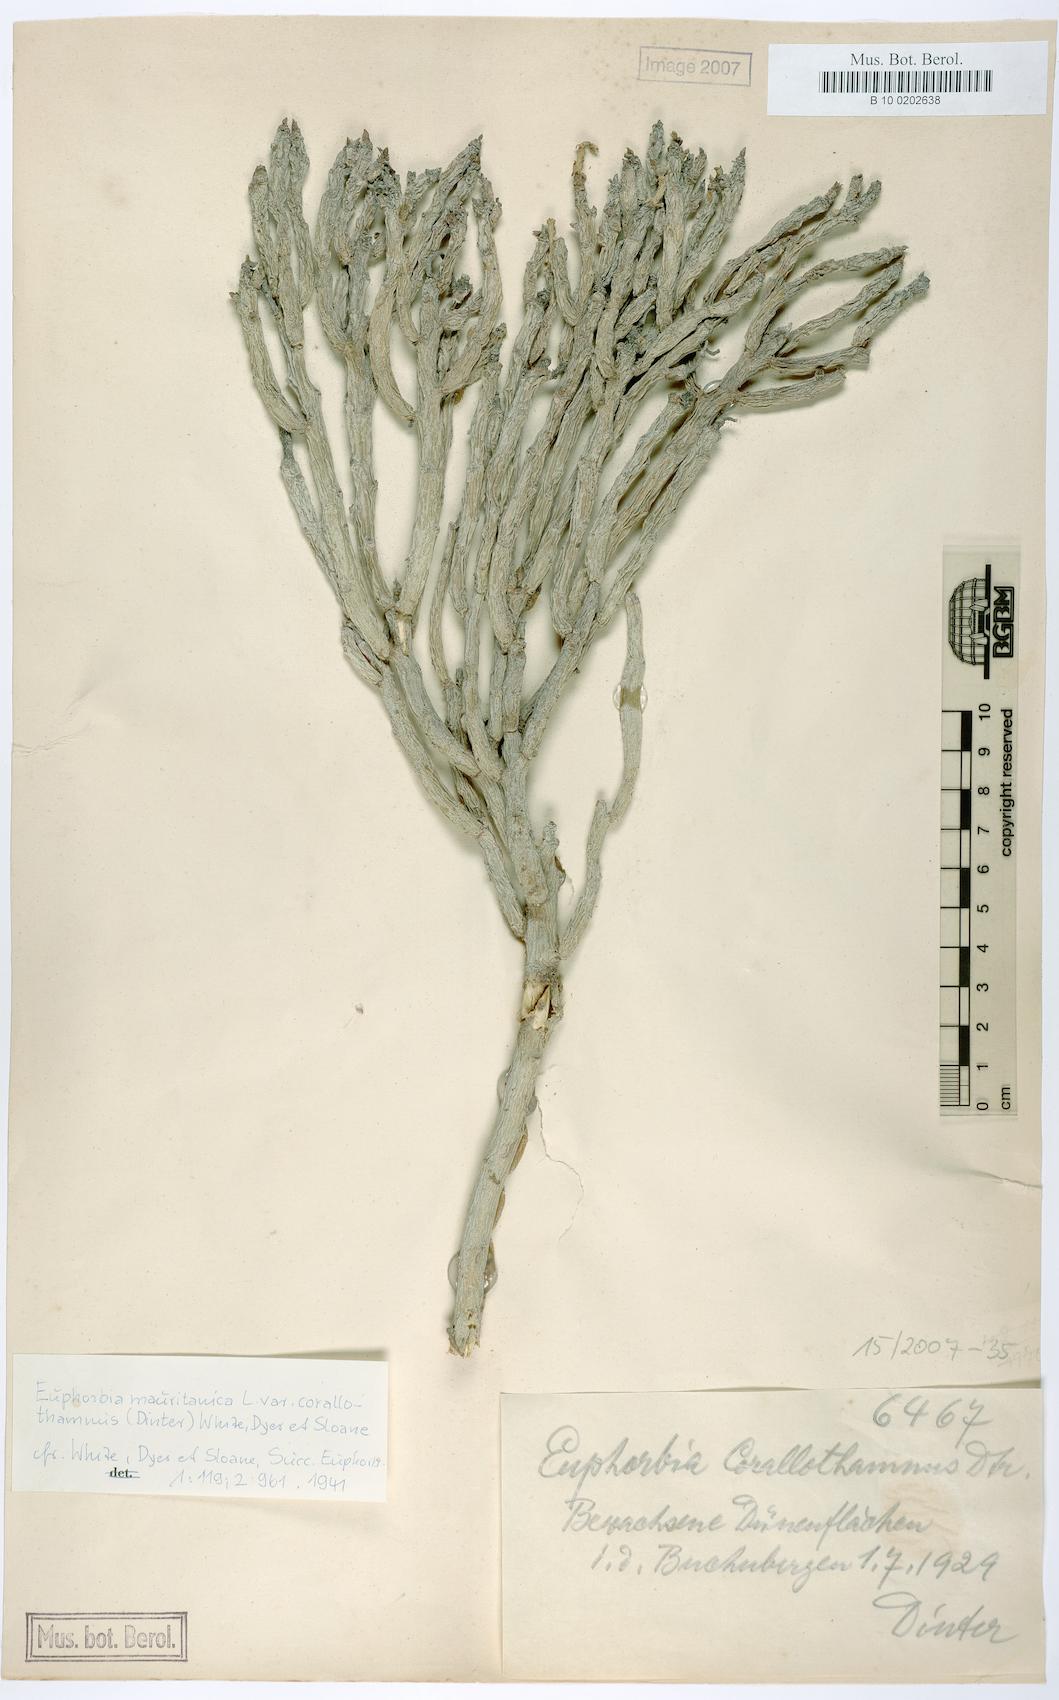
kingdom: Plantae
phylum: Tracheophyta
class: Magnoliopsida
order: Malpighiales
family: Euphorbiaceae
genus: Euphorbia
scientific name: Euphorbia mauritanica
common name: Jackal's-food
